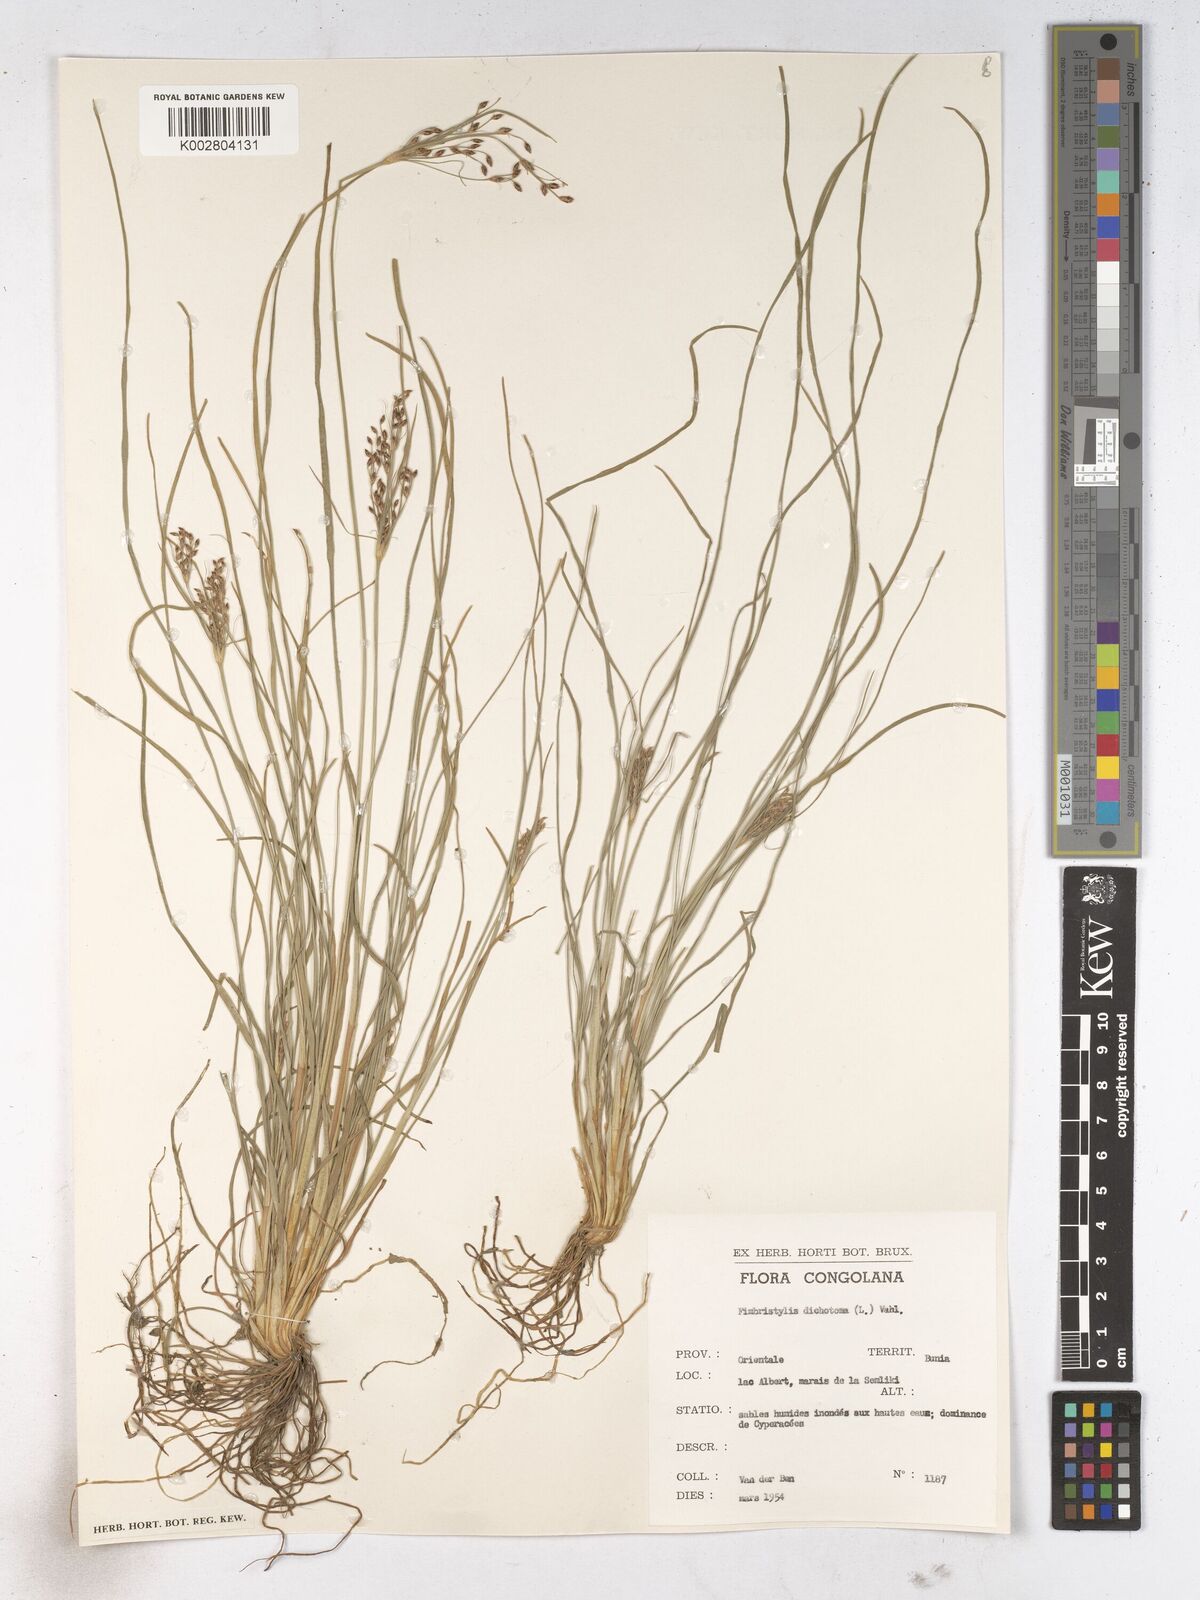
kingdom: Plantae
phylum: Tracheophyta
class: Liliopsida
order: Poales
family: Cyperaceae
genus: Fimbristylis
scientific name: Fimbristylis dichotoma
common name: Forked fimbry
